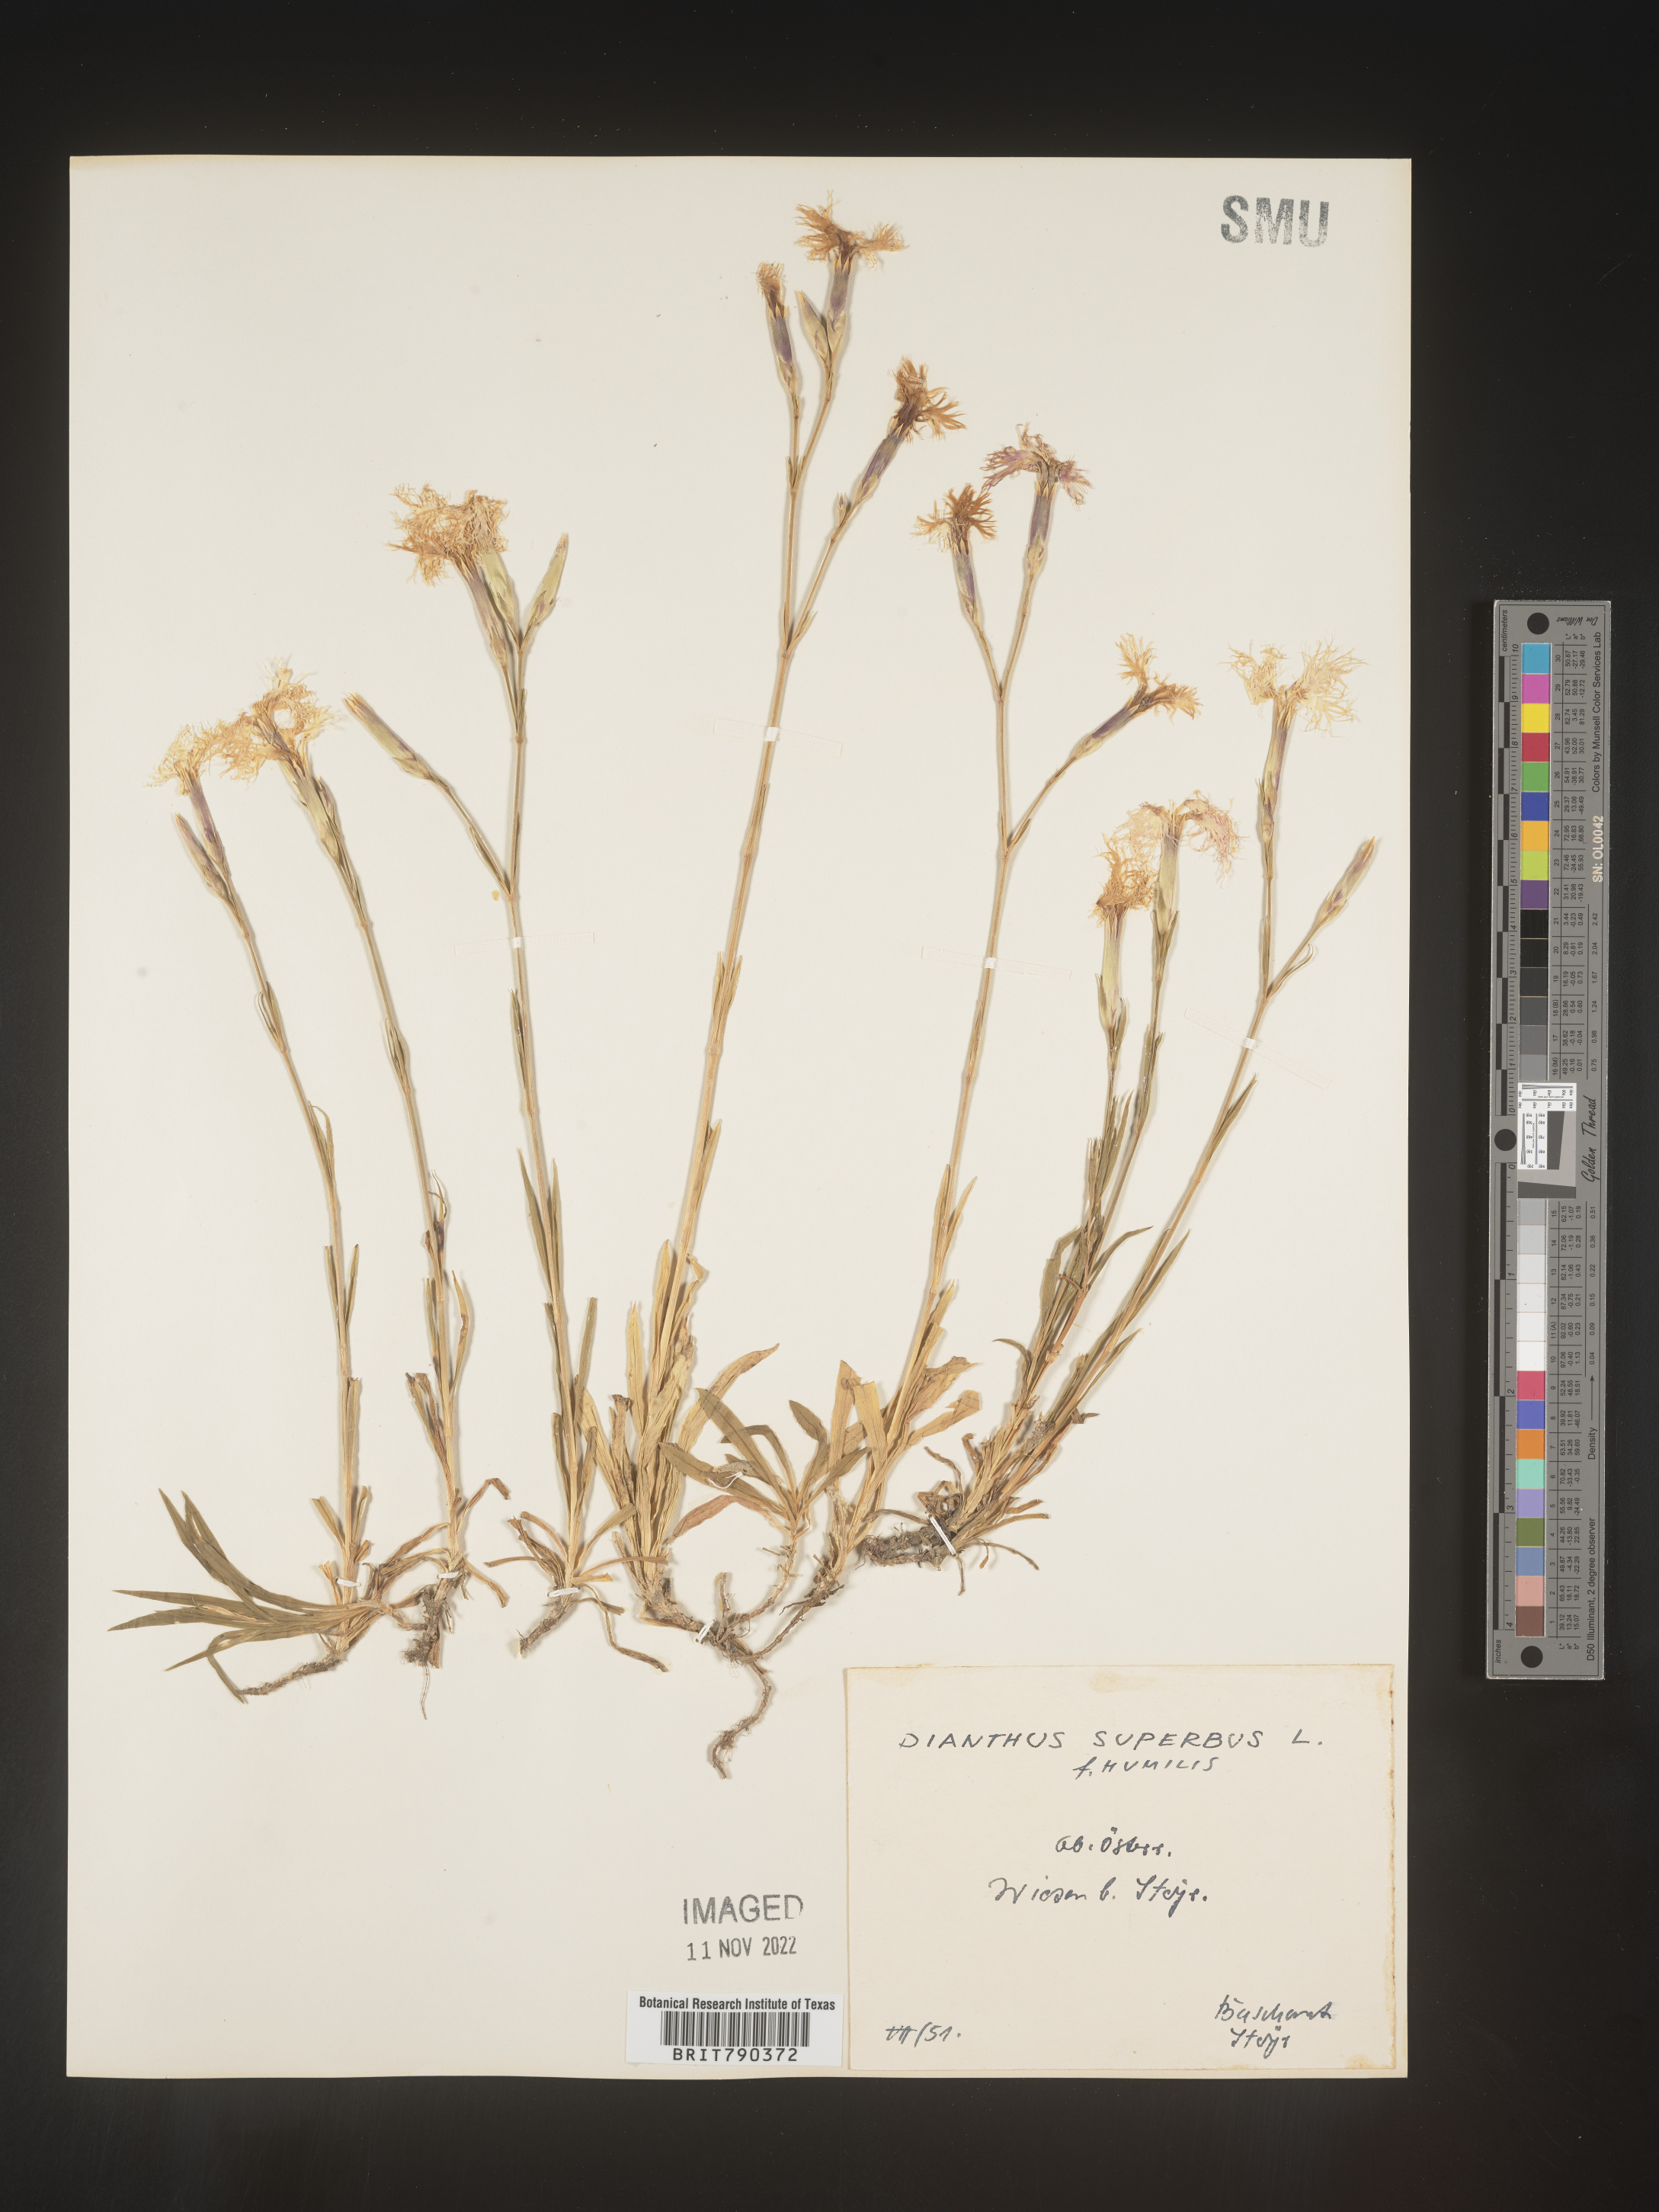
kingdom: Plantae
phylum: Tracheophyta
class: Magnoliopsida
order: Caryophyllales
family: Caryophyllaceae
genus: Dianthus
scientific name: Dianthus superbus
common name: Fringed pink
